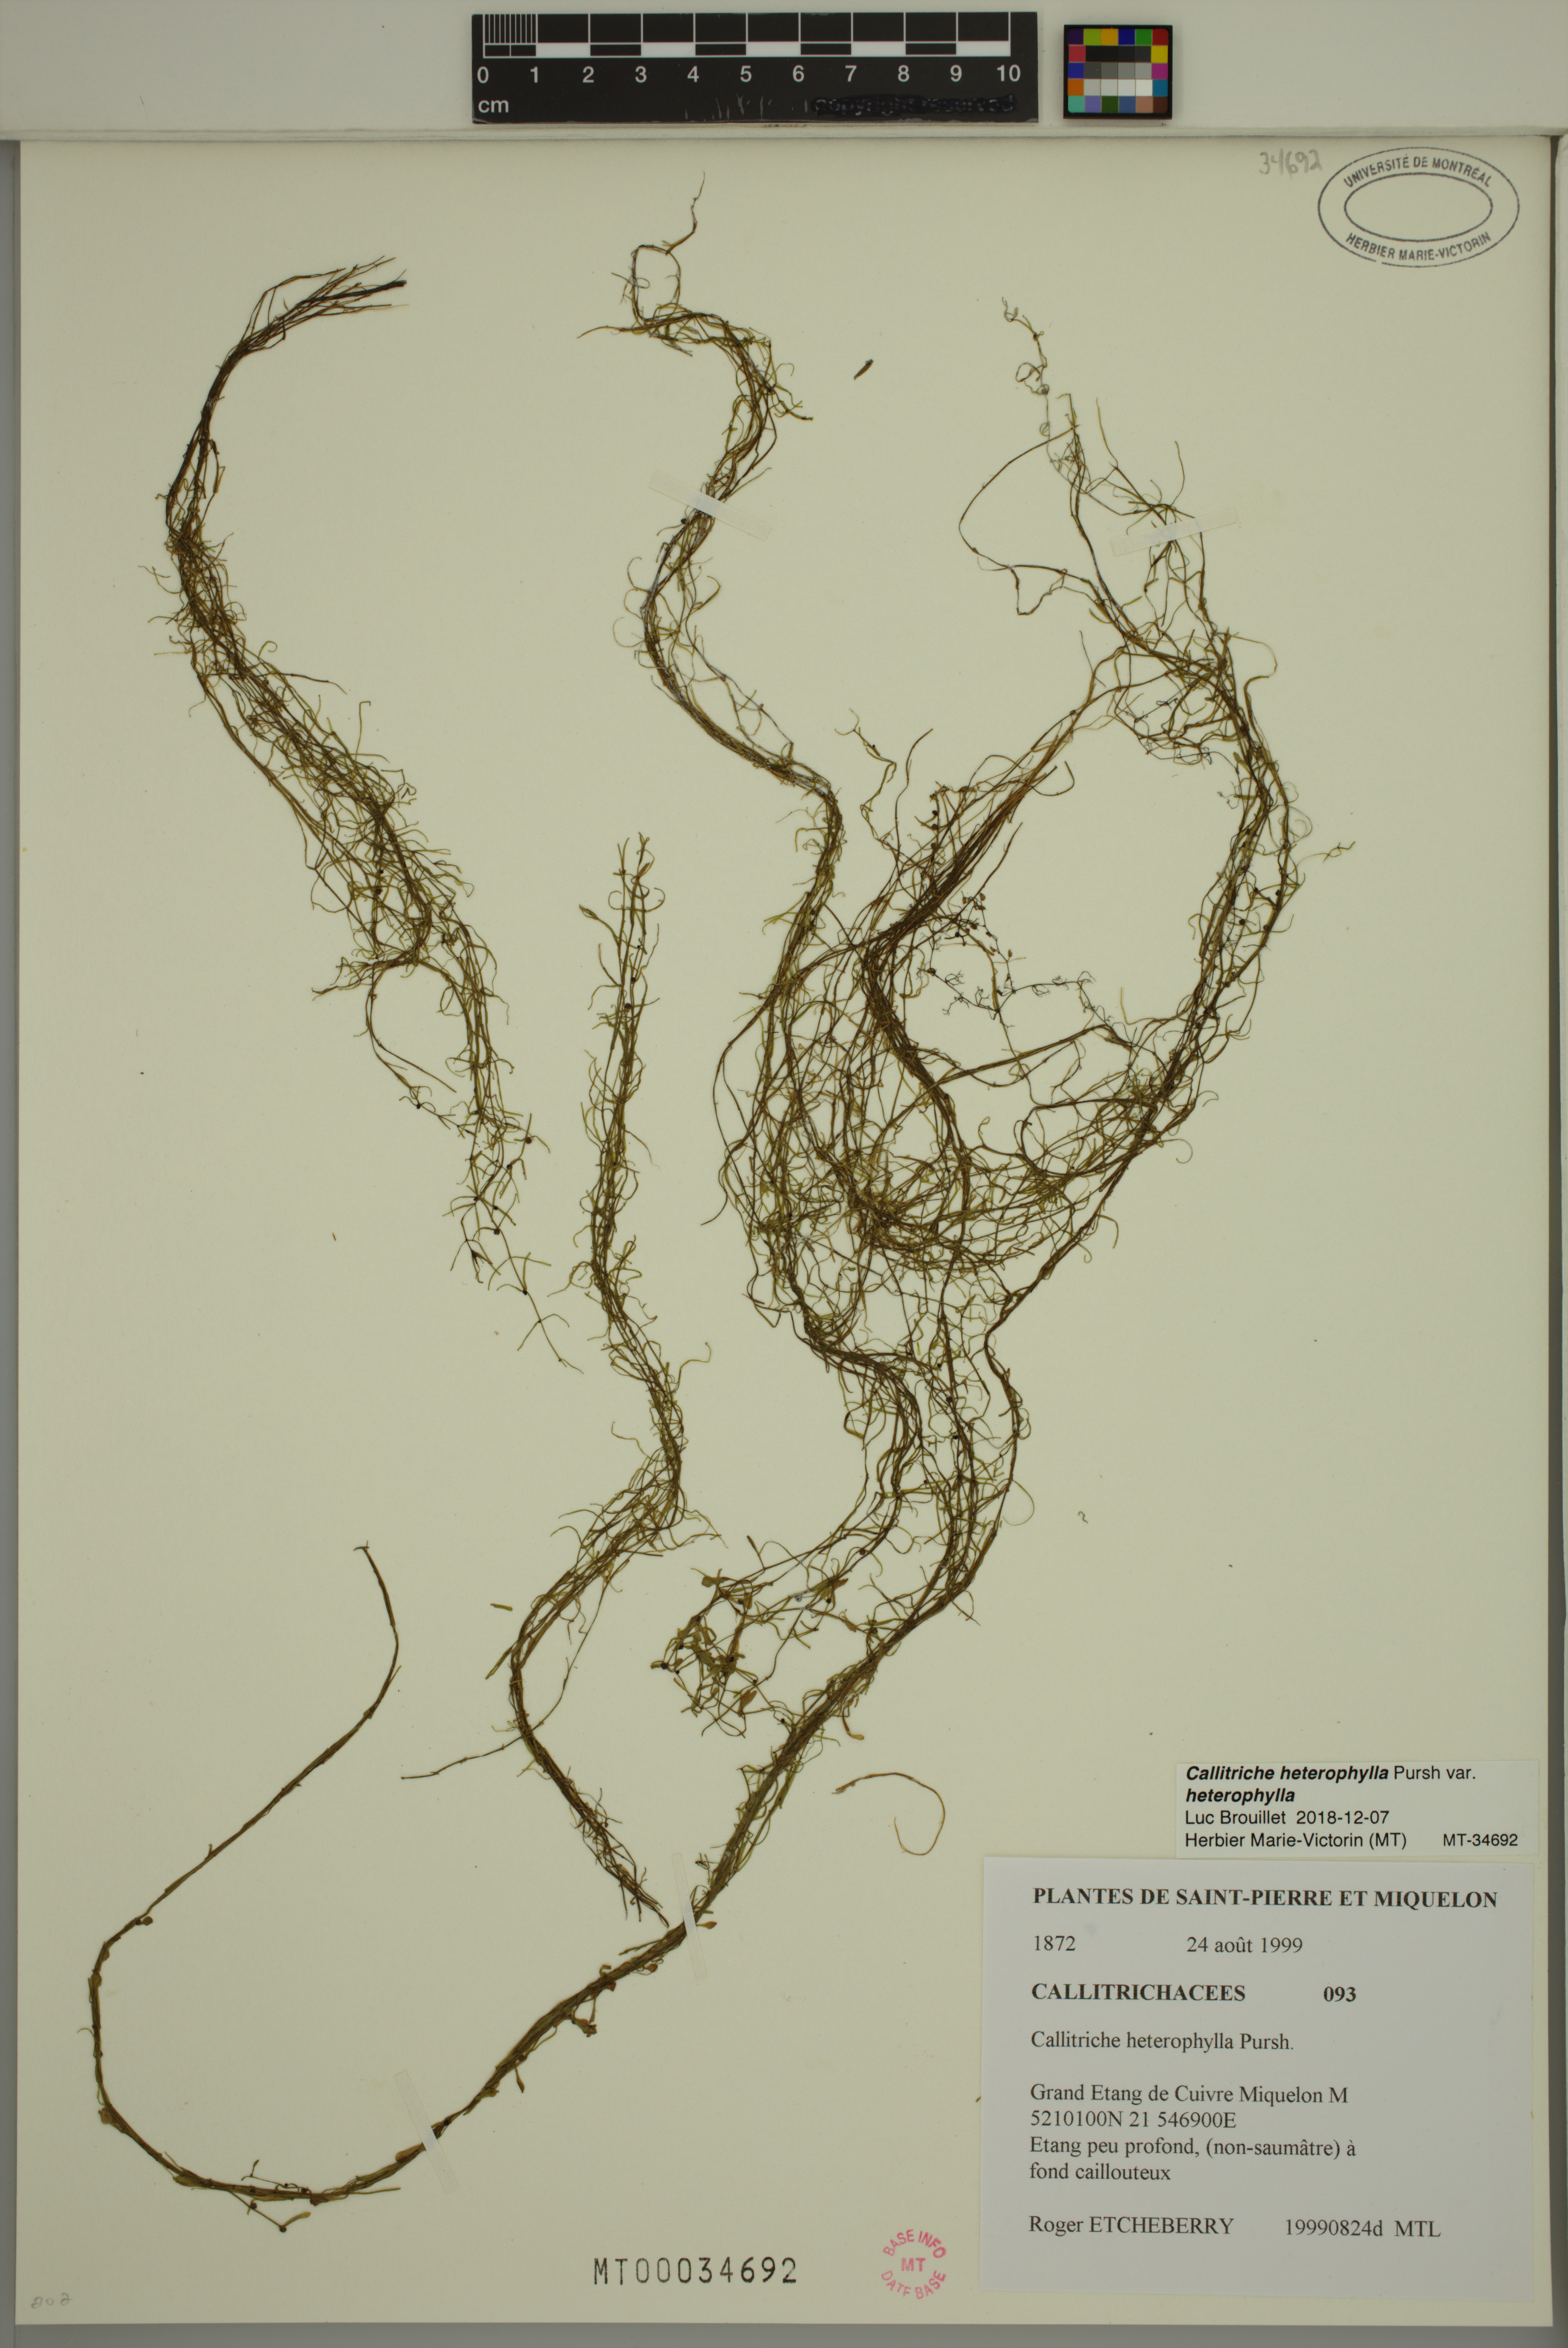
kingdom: Plantae
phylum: Tracheophyta
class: Magnoliopsida
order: Lamiales
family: Plantaginaceae
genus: Callitriche
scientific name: Callitriche heterophylla
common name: Two-headed water-starwort
